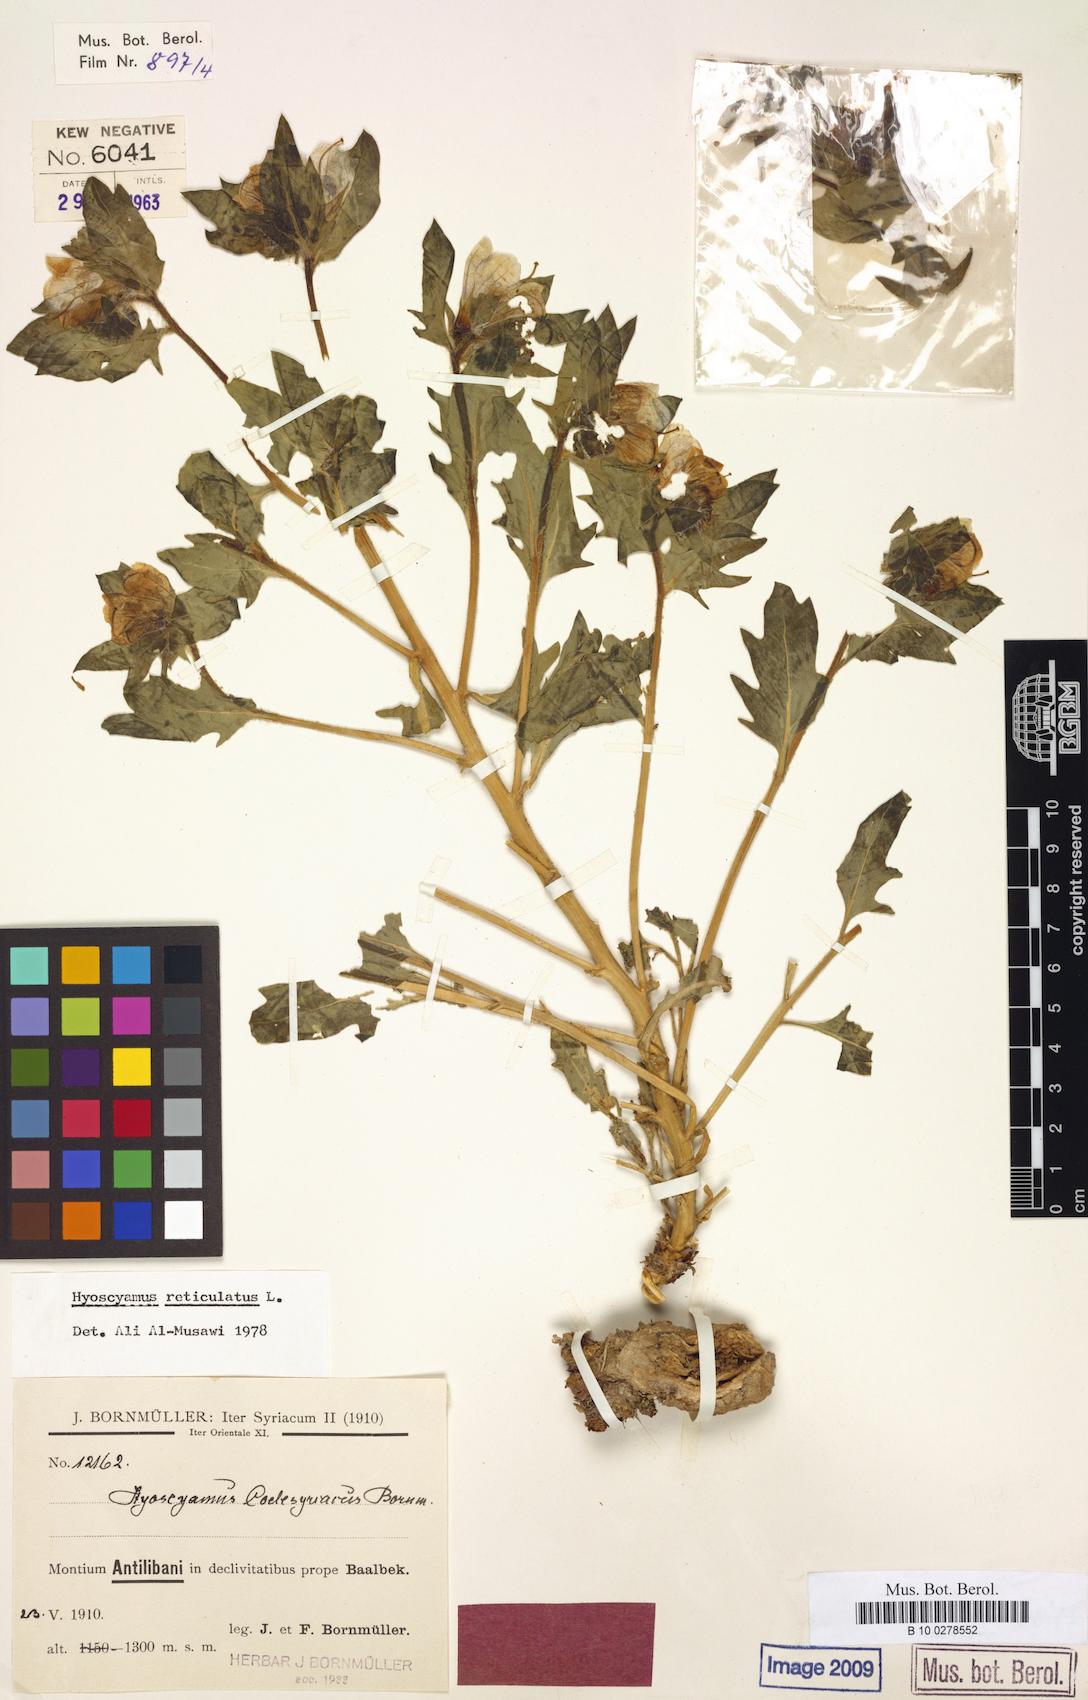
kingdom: Plantae
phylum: Tracheophyta
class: Magnoliopsida
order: Solanales
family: Solanaceae
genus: Hyoscyamus
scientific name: Hyoscyamus reticulatus
